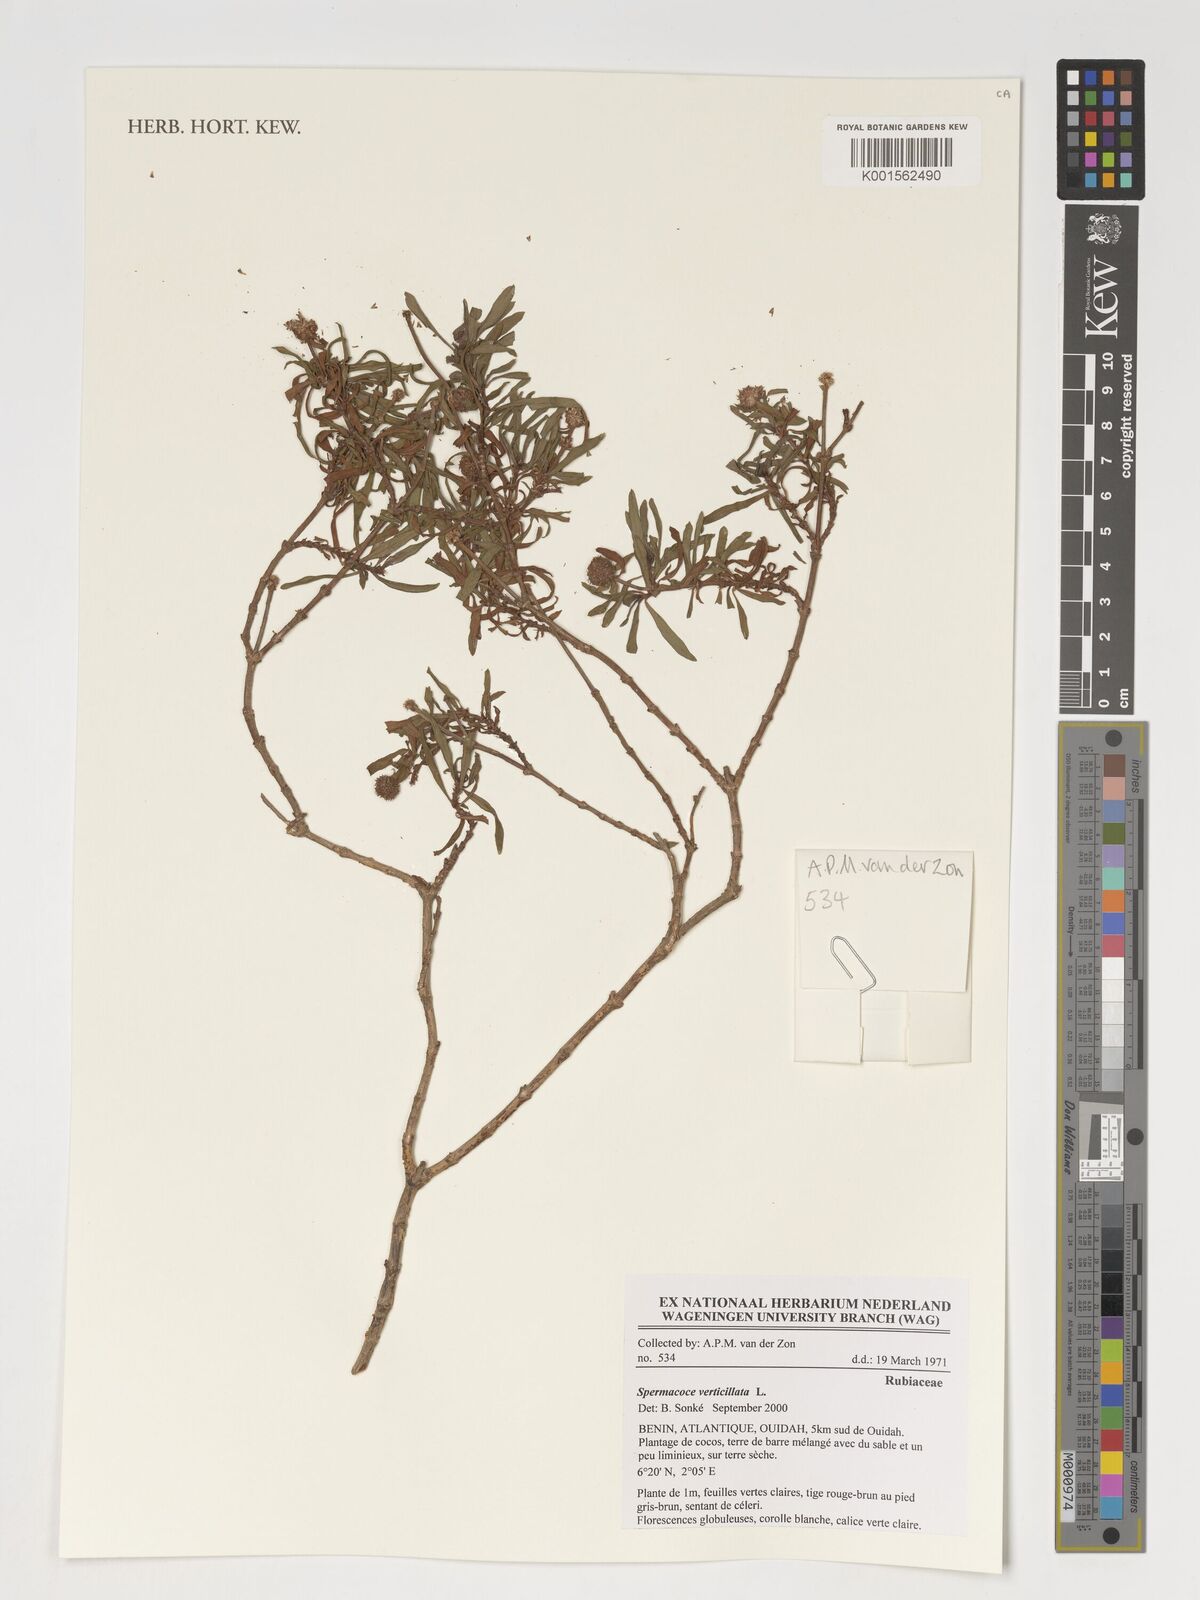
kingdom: Plantae
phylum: Tracheophyta
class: Magnoliopsida
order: Gentianales
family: Rubiaceae
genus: Spermacoce
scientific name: Spermacoce verticillata
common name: Shrubby false buttonweed
